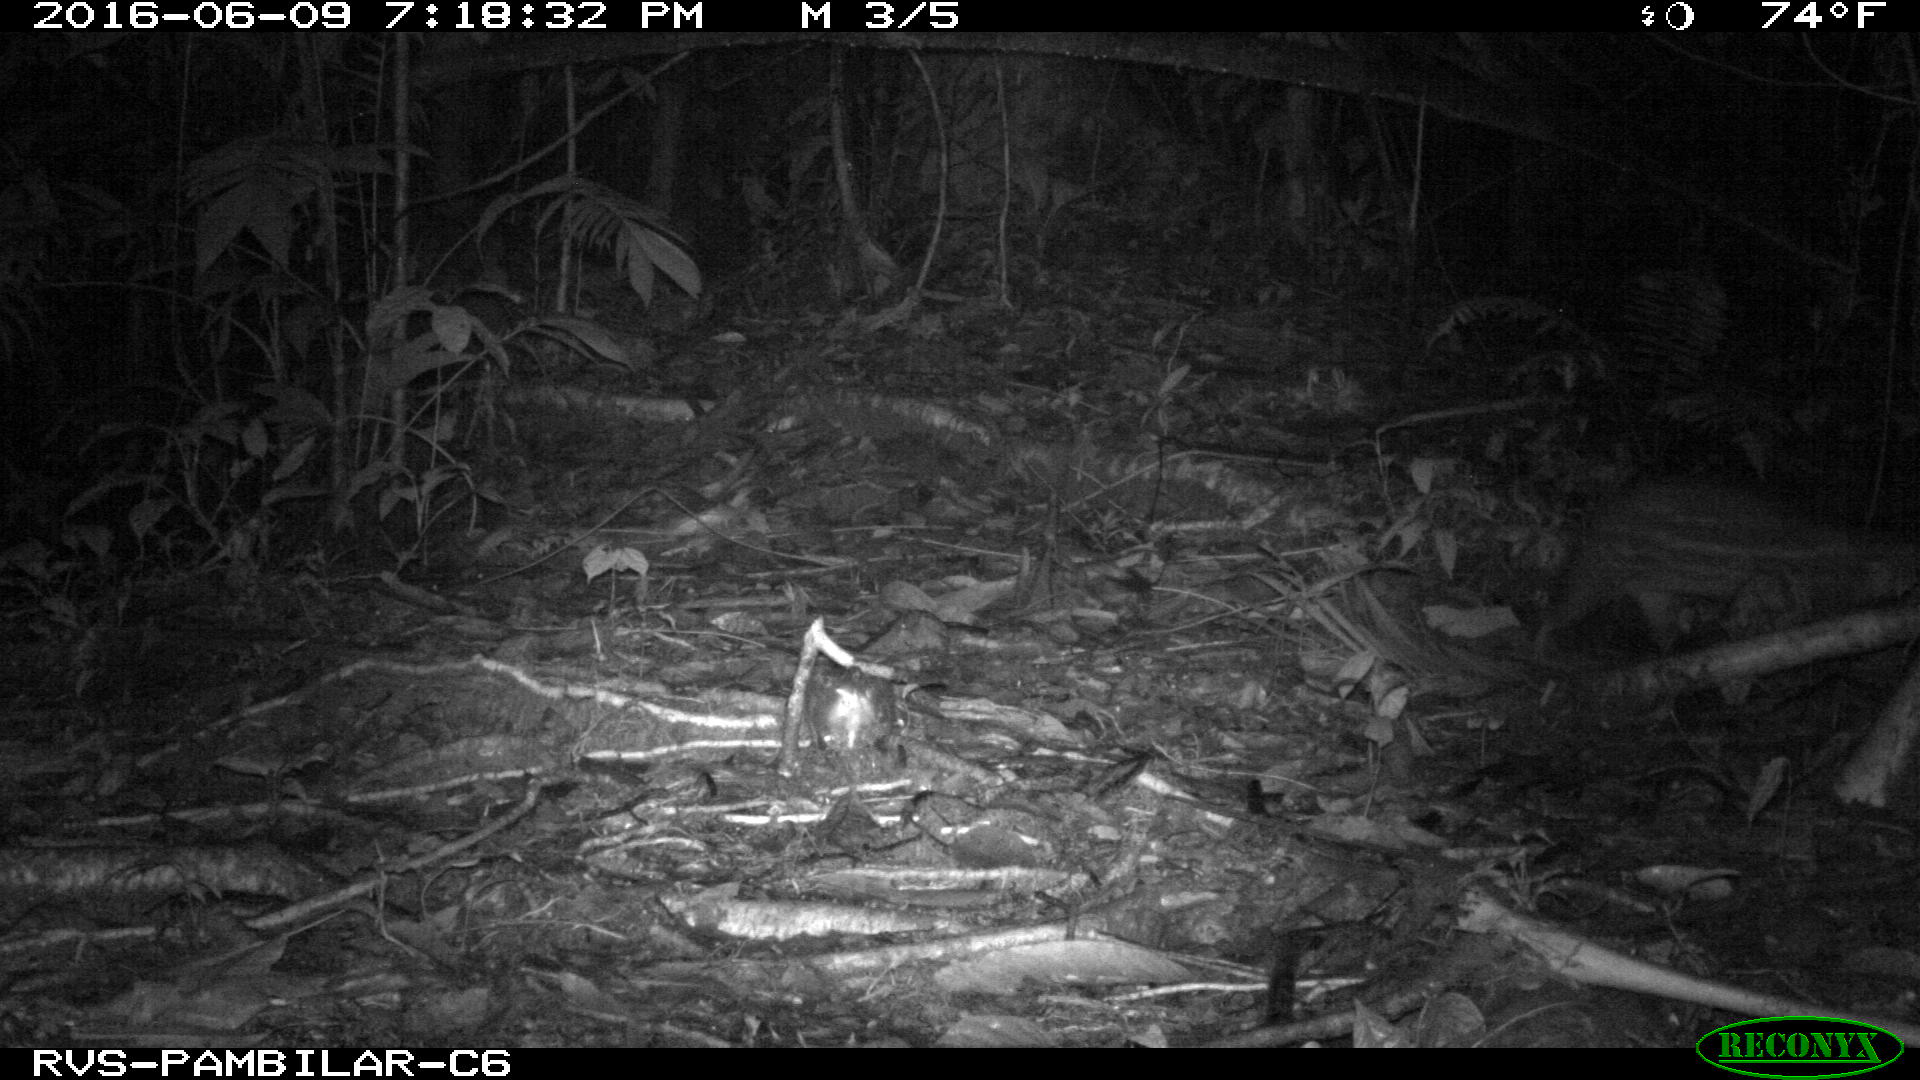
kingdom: Animalia
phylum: Chordata
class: Mammalia
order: Rodentia
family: Cuniculidae
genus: Cuniculus
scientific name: Cuniculus paca
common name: Lowland paca
